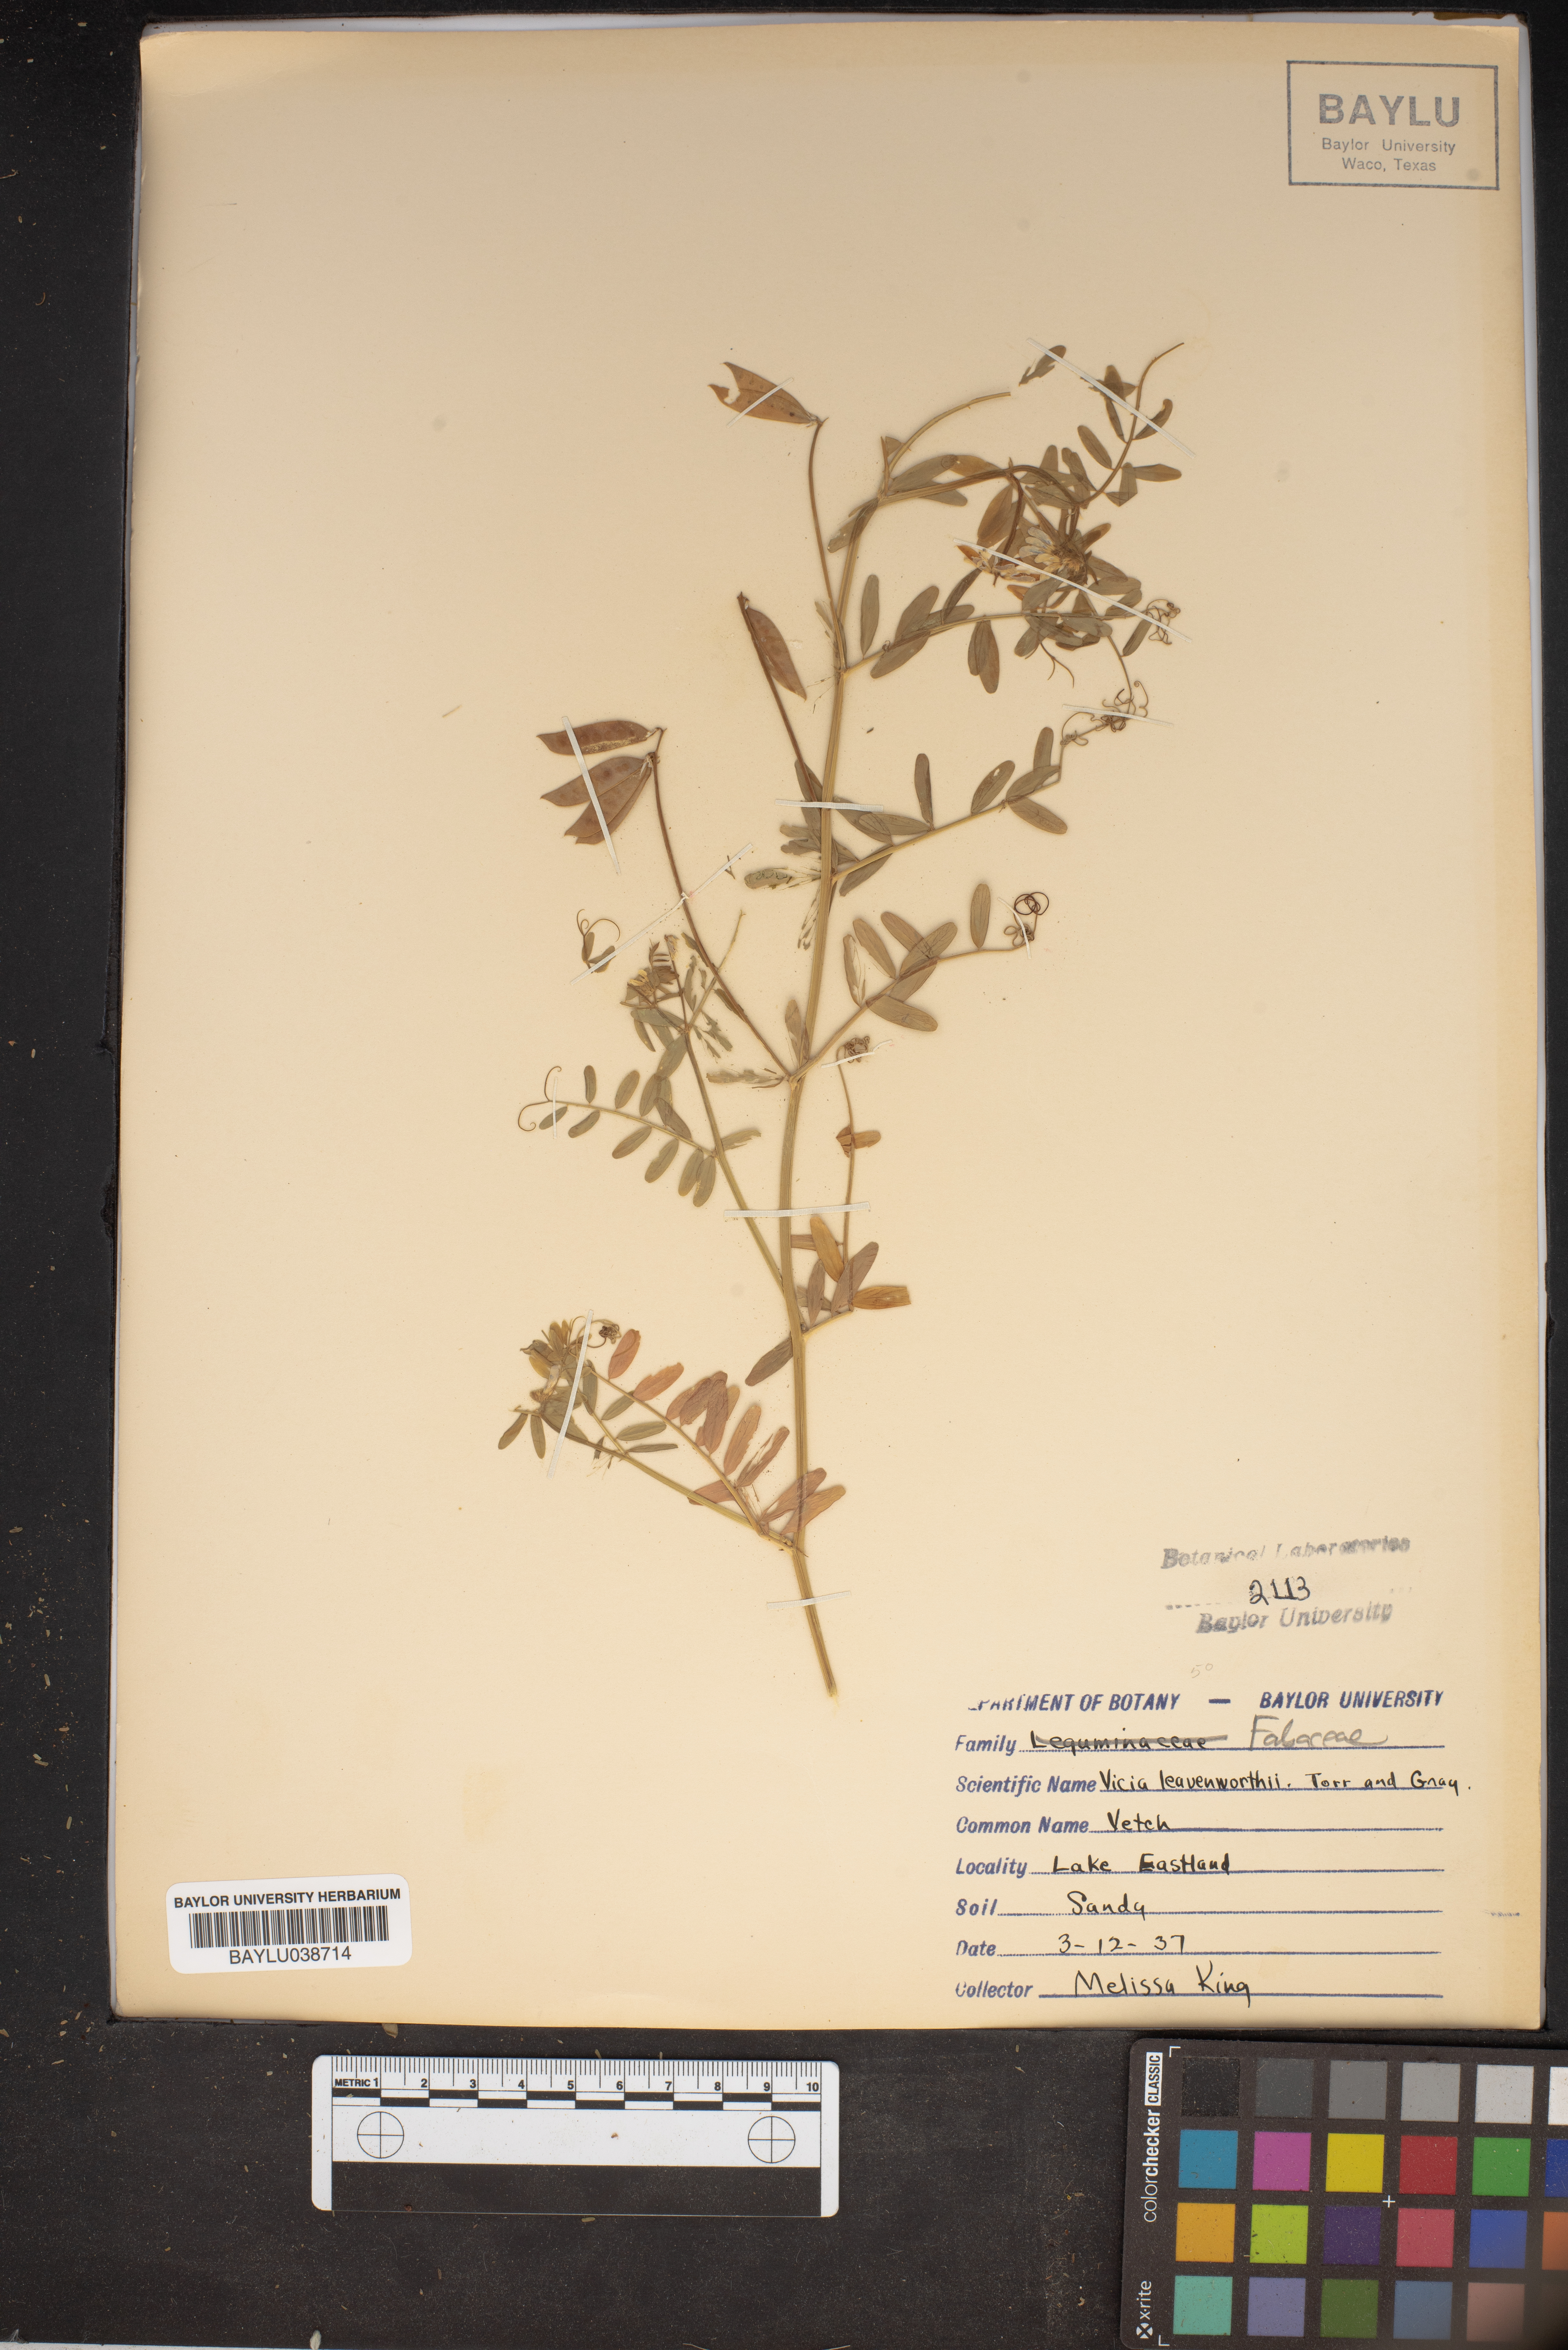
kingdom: Plantae
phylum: Tracheophyta
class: Magnoliopsida
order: Fabales
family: Fabaceae
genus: Vicia
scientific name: Vicia ludoviciana
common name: Louisiana vetch
